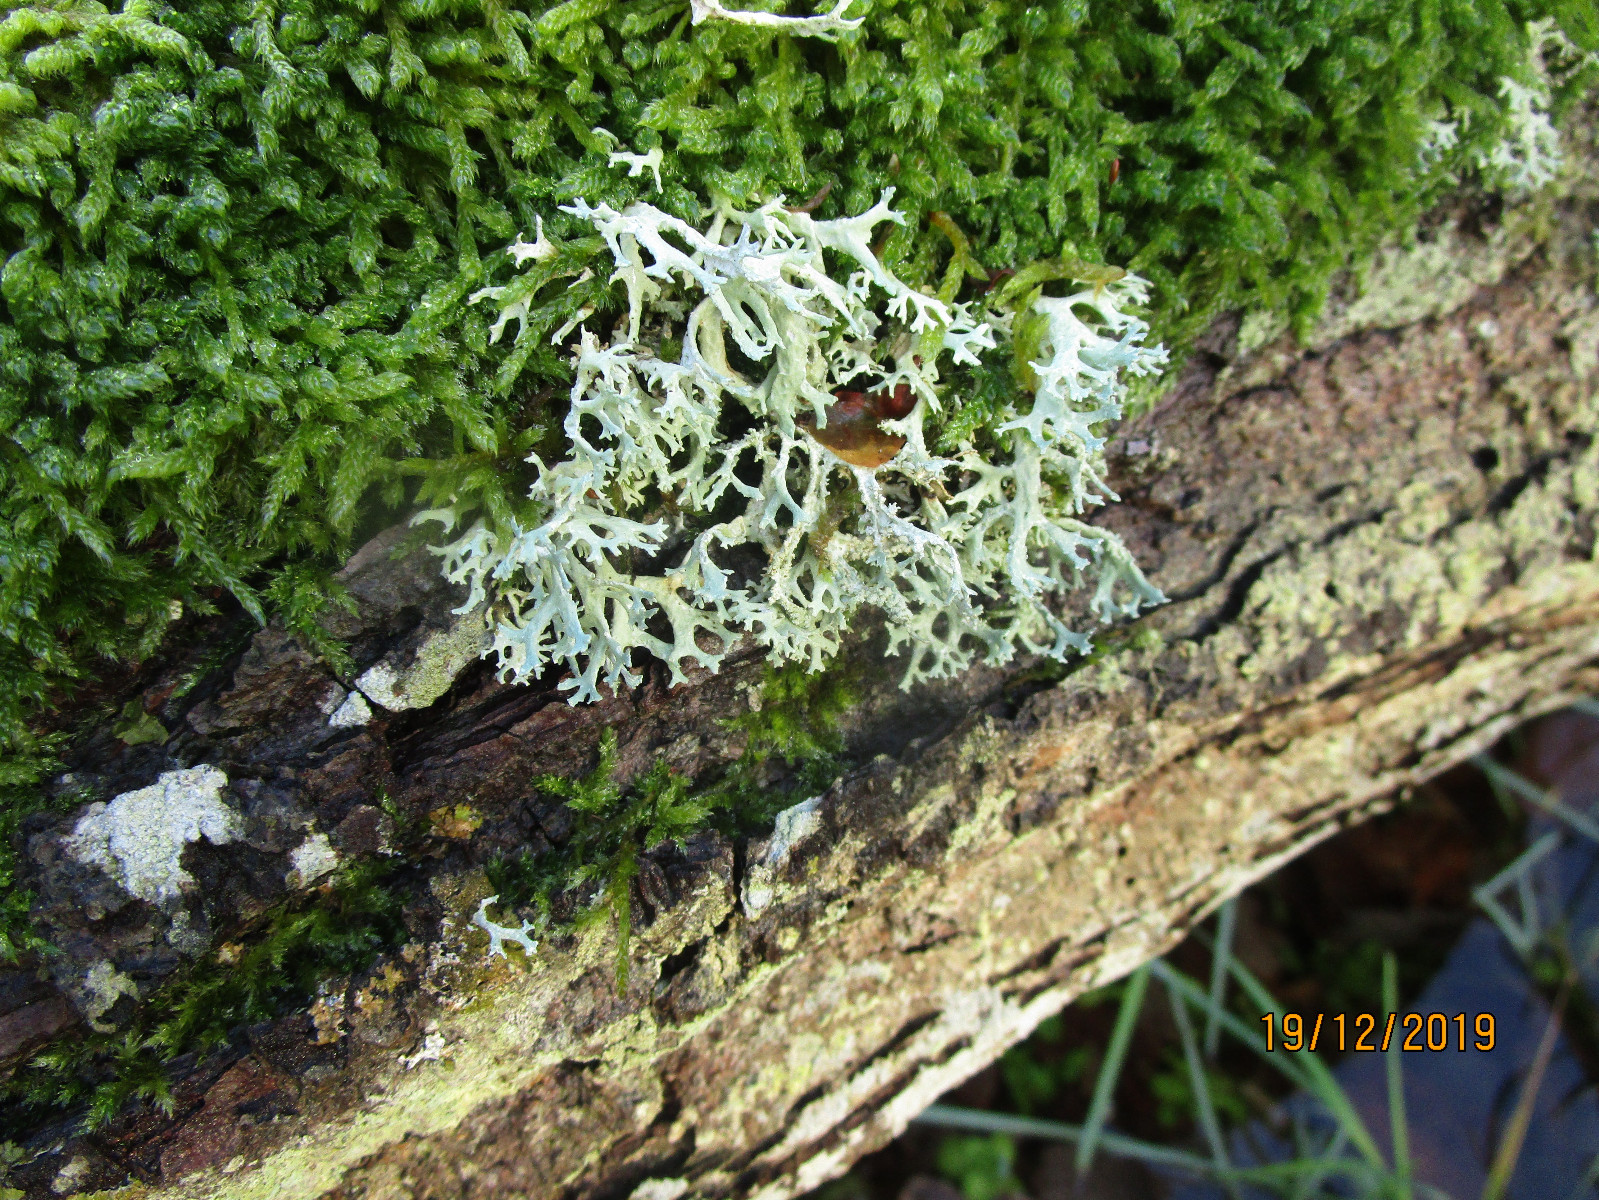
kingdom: Fungi
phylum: Ascomycota
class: Lecanoromycetes
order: Lecanorales
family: Parmeliaceae
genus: Evernia
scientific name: Evernia prunastri
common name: almindelig slåenlav
